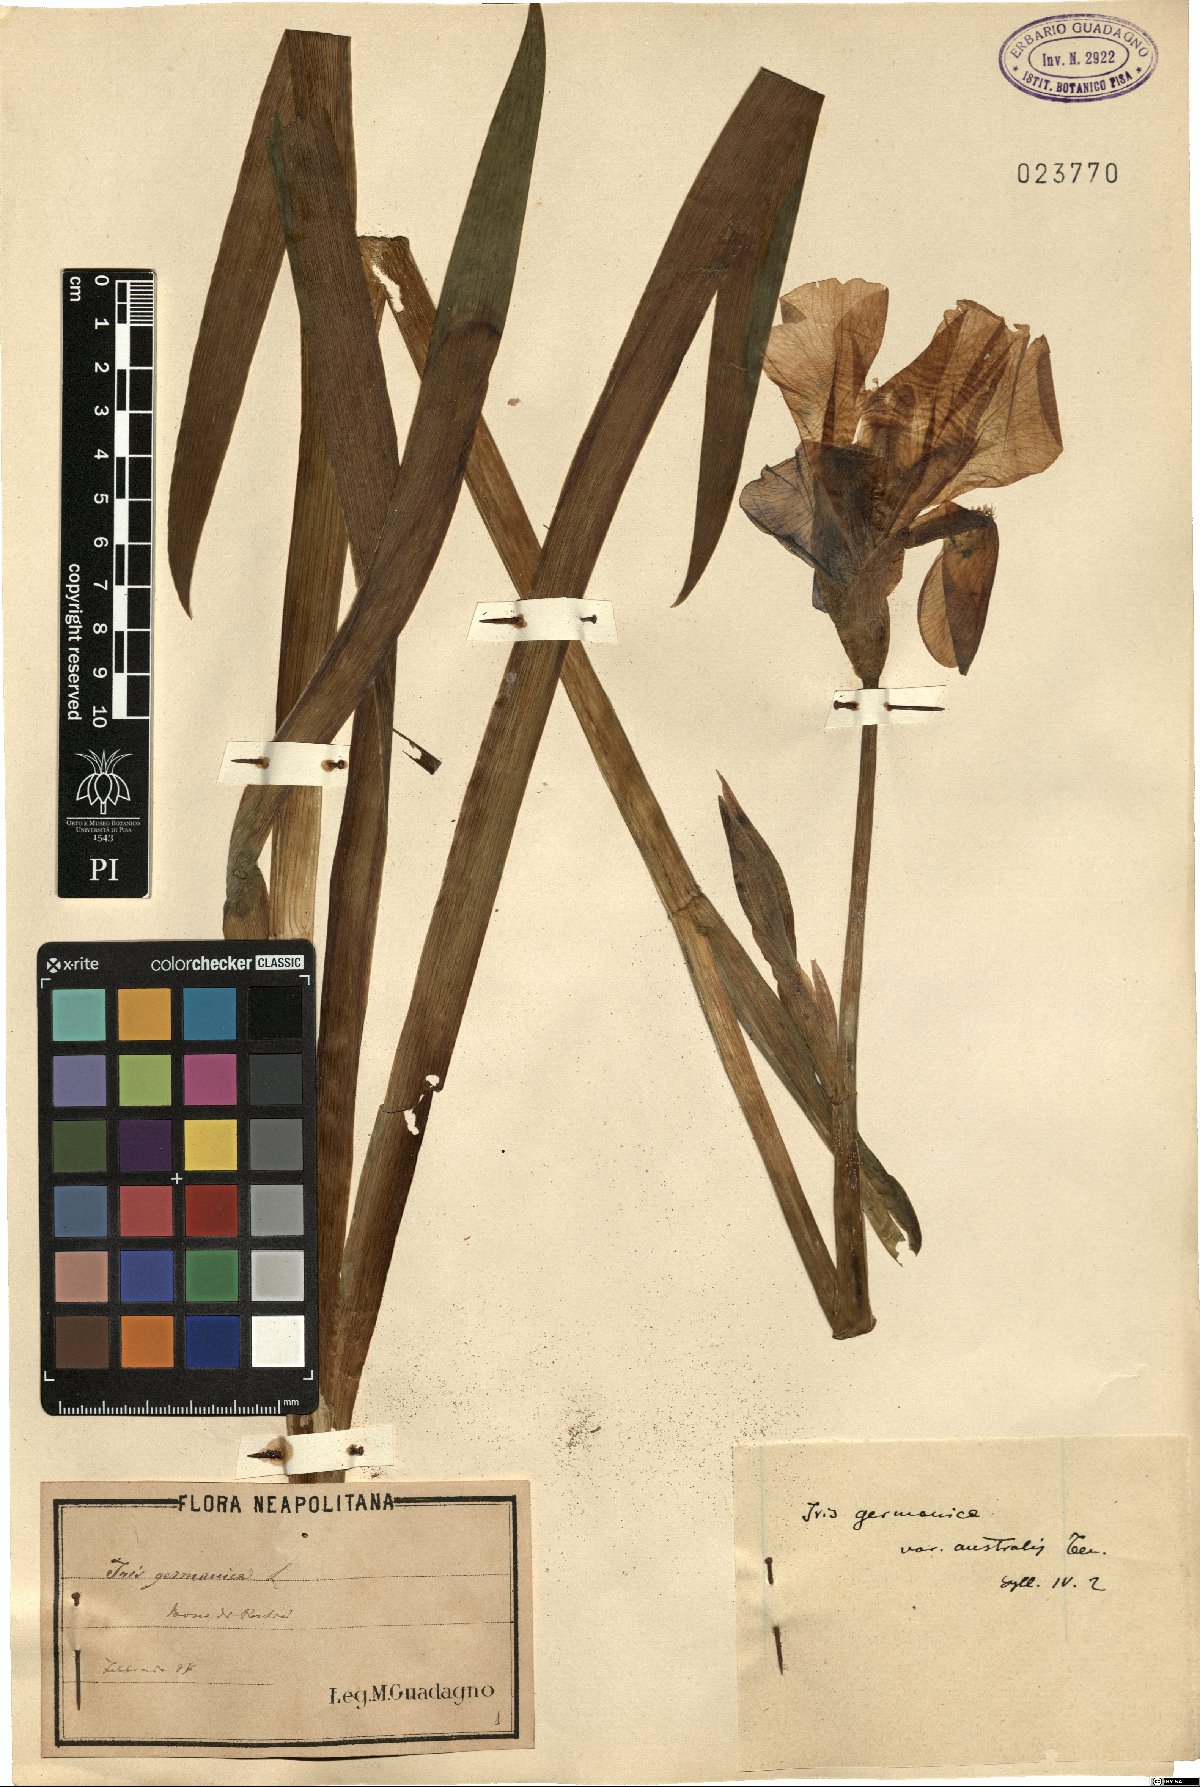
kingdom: Plantae
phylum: Tracheophyta
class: Liliopsida
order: Asparagales
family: Iridaceae
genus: Iris
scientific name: Iris germanica
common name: German iris
